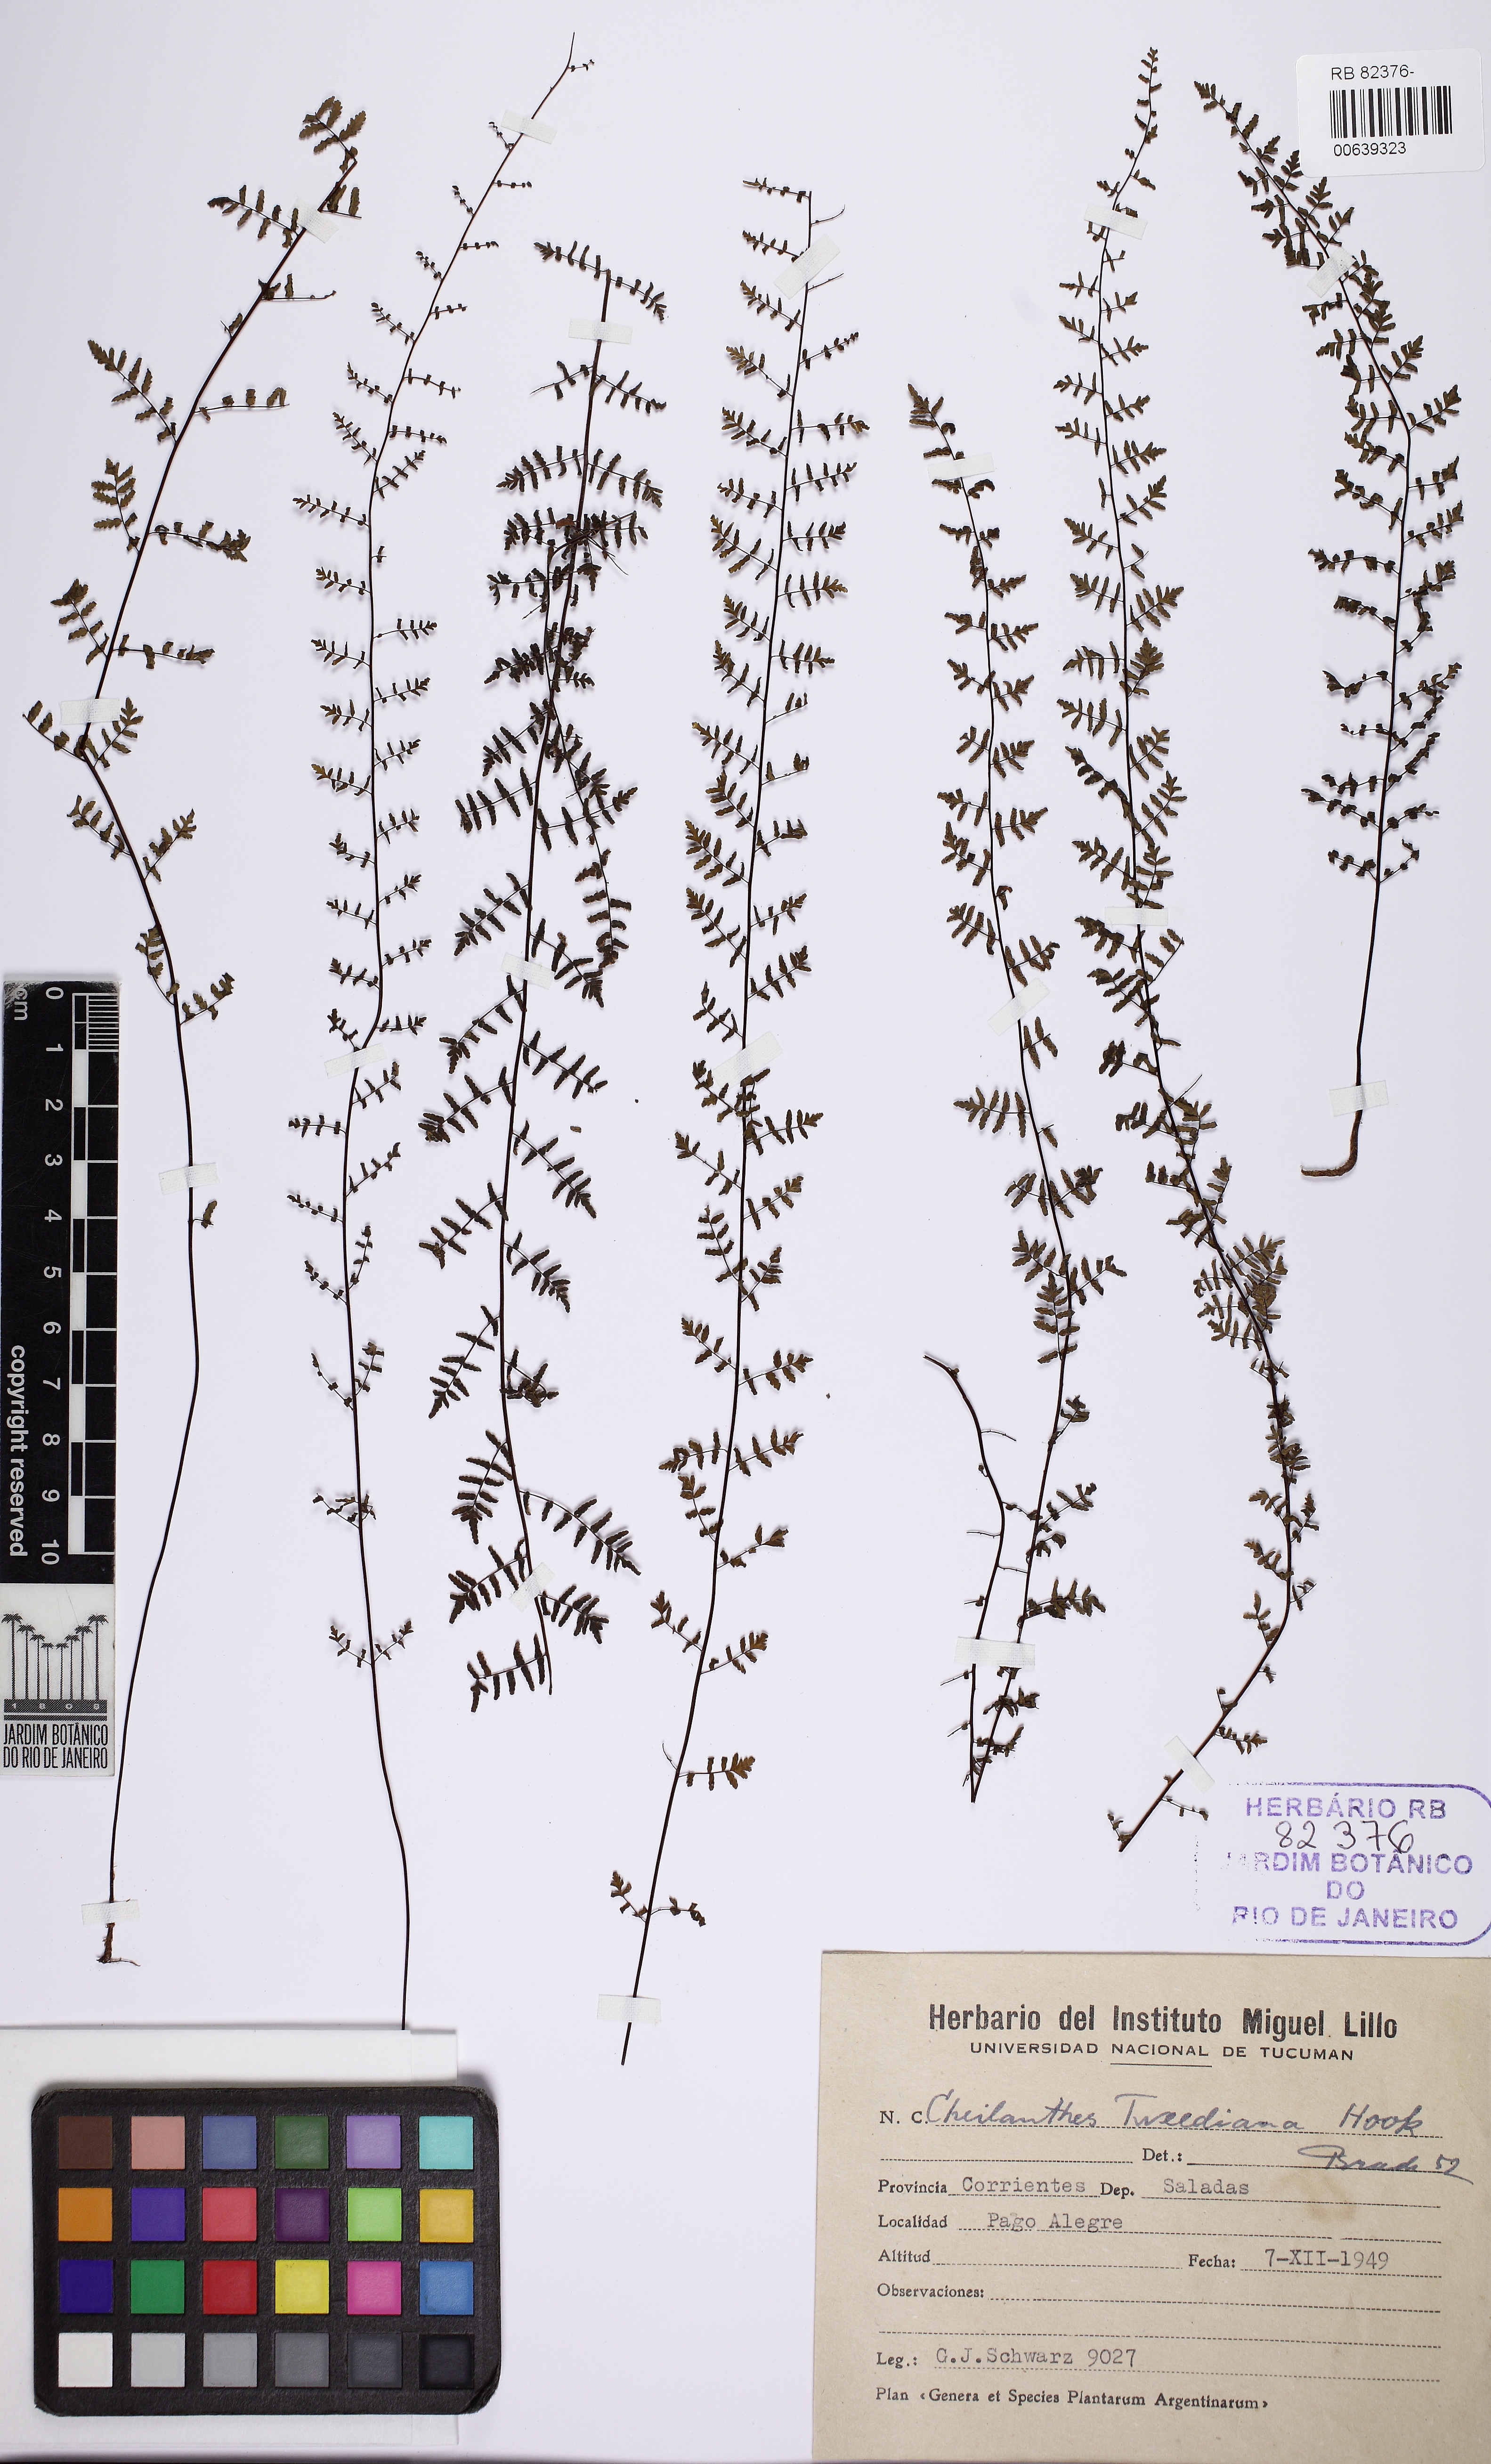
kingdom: Plantae
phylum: Tracheophyta
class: Polypodiopsida
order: Polypodiales
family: Pteridaceae
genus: Adiantopsis
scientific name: Adiantopsis tweediana
